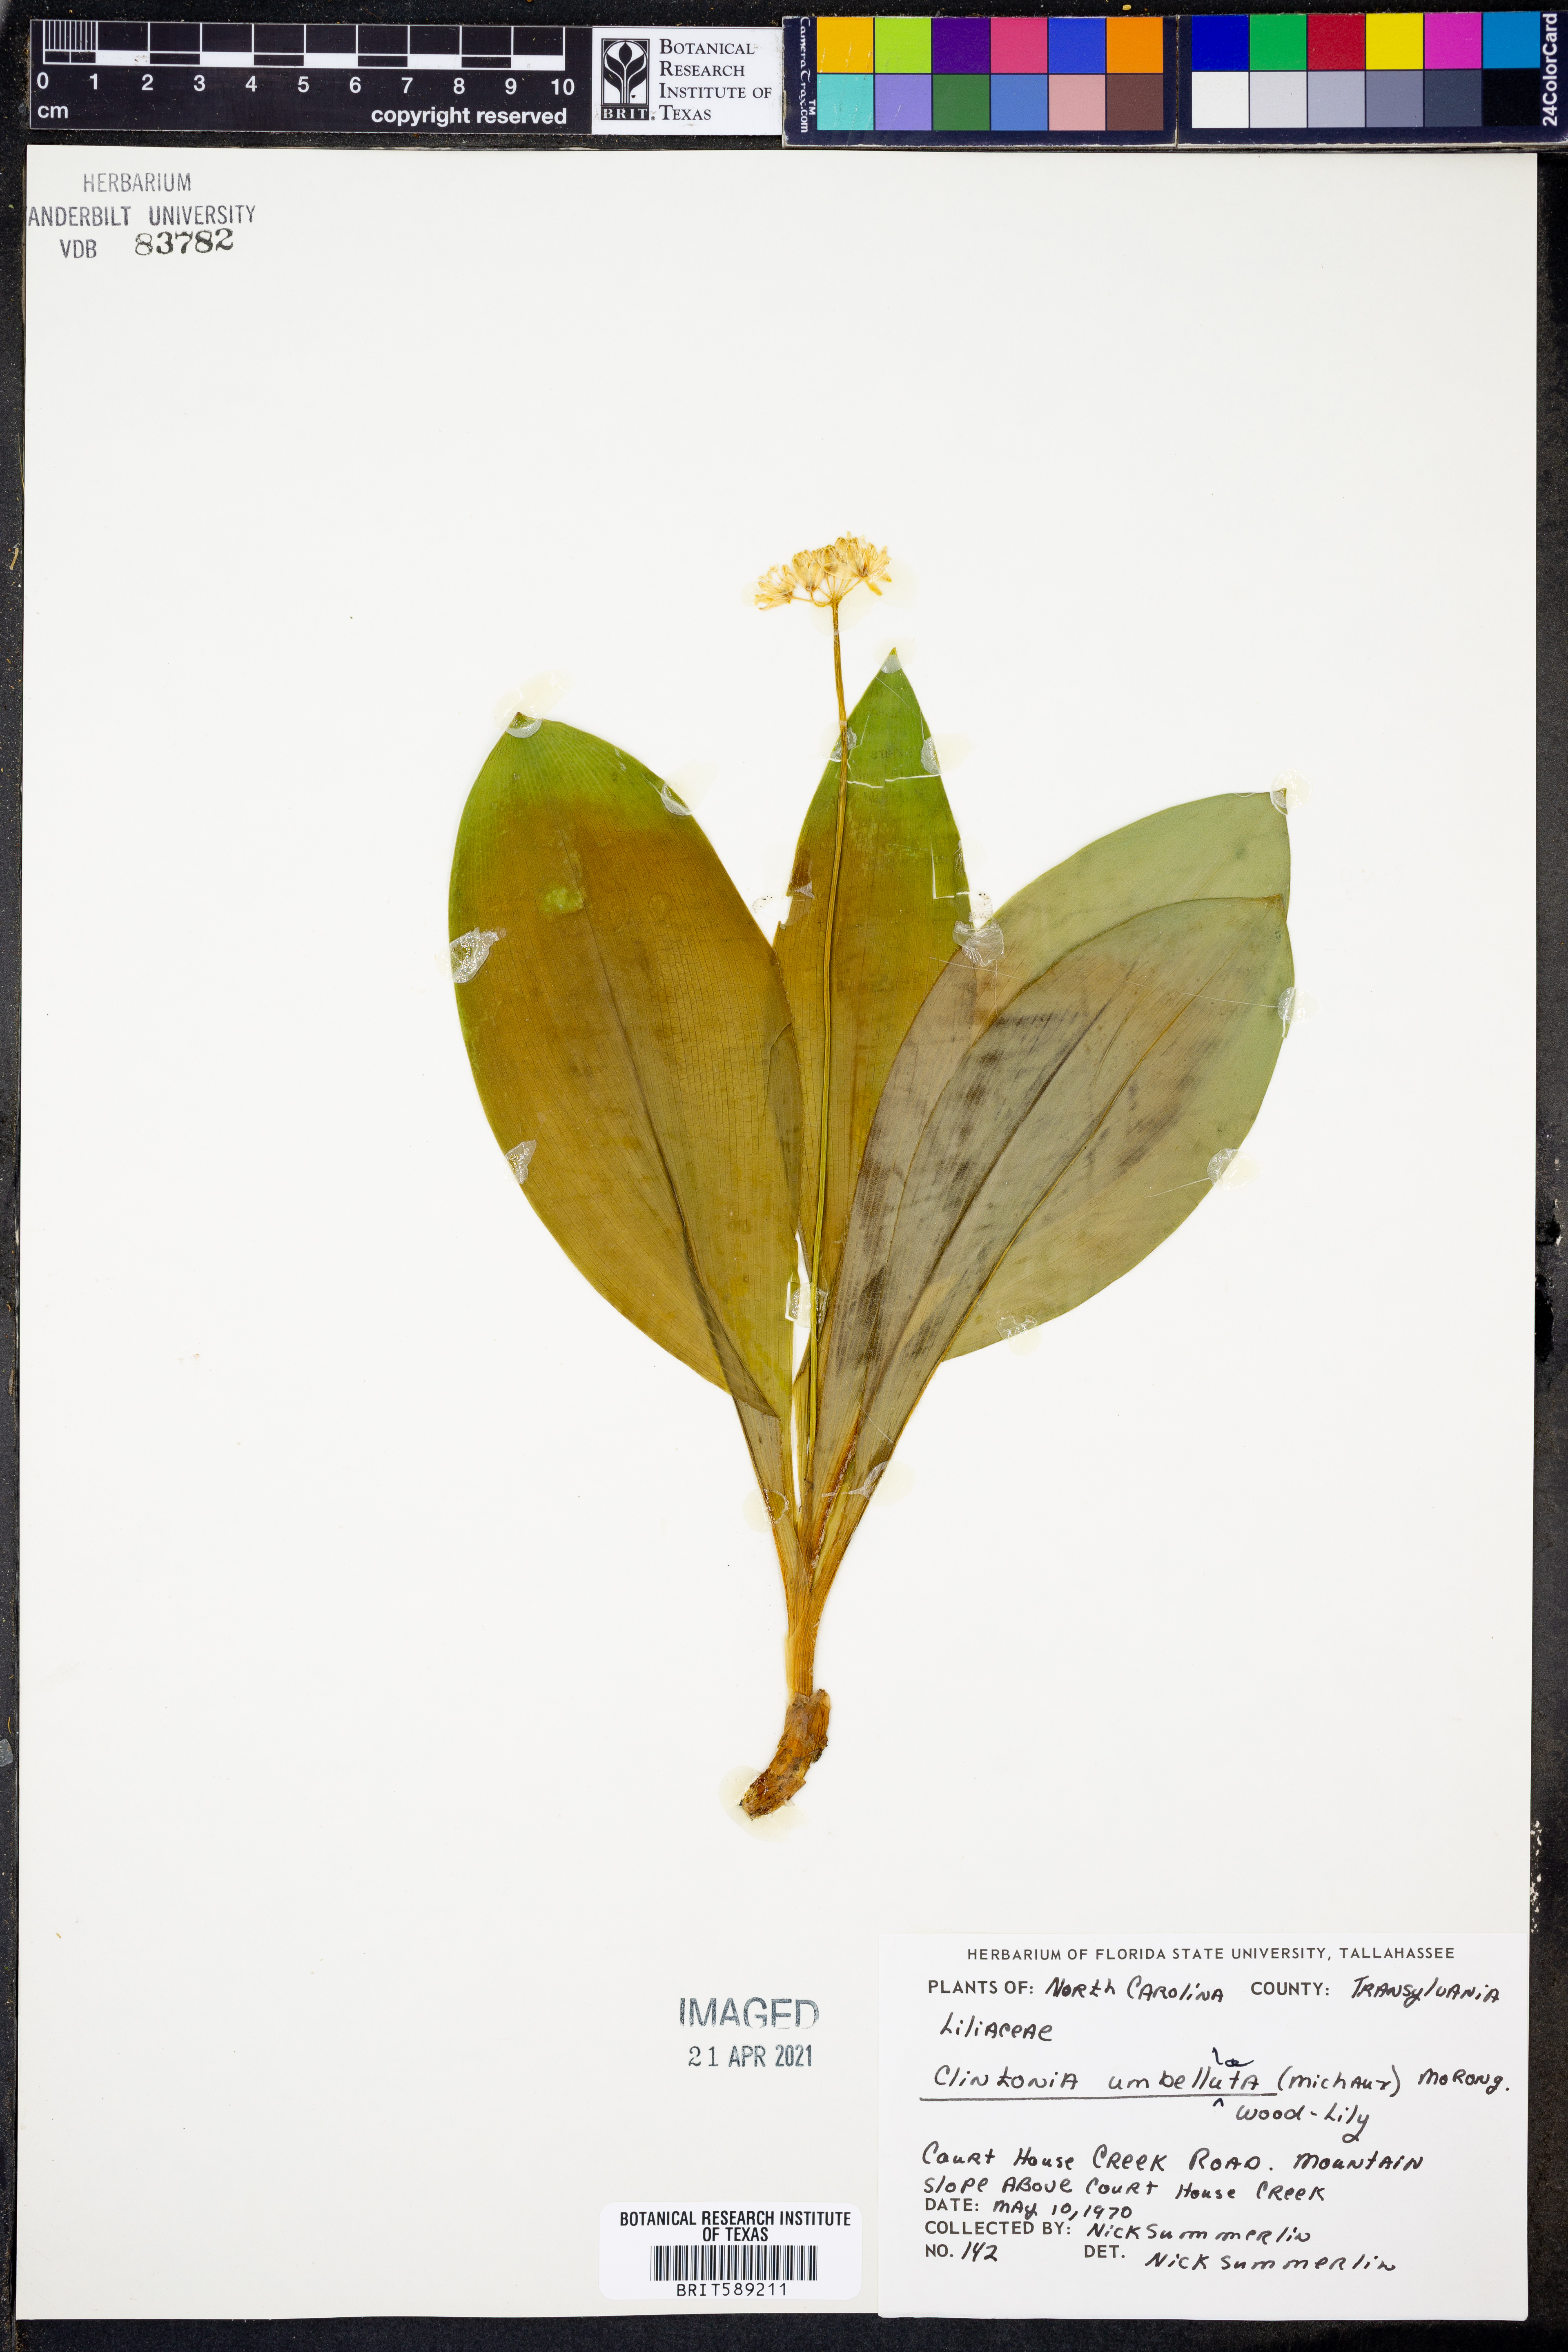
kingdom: Plantae
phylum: Tracheophyta
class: Liliopsida
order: Liliales
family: Liliaceae
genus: Clintonia
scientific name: Clintonia umbellulata
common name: Speckle wood-lily
